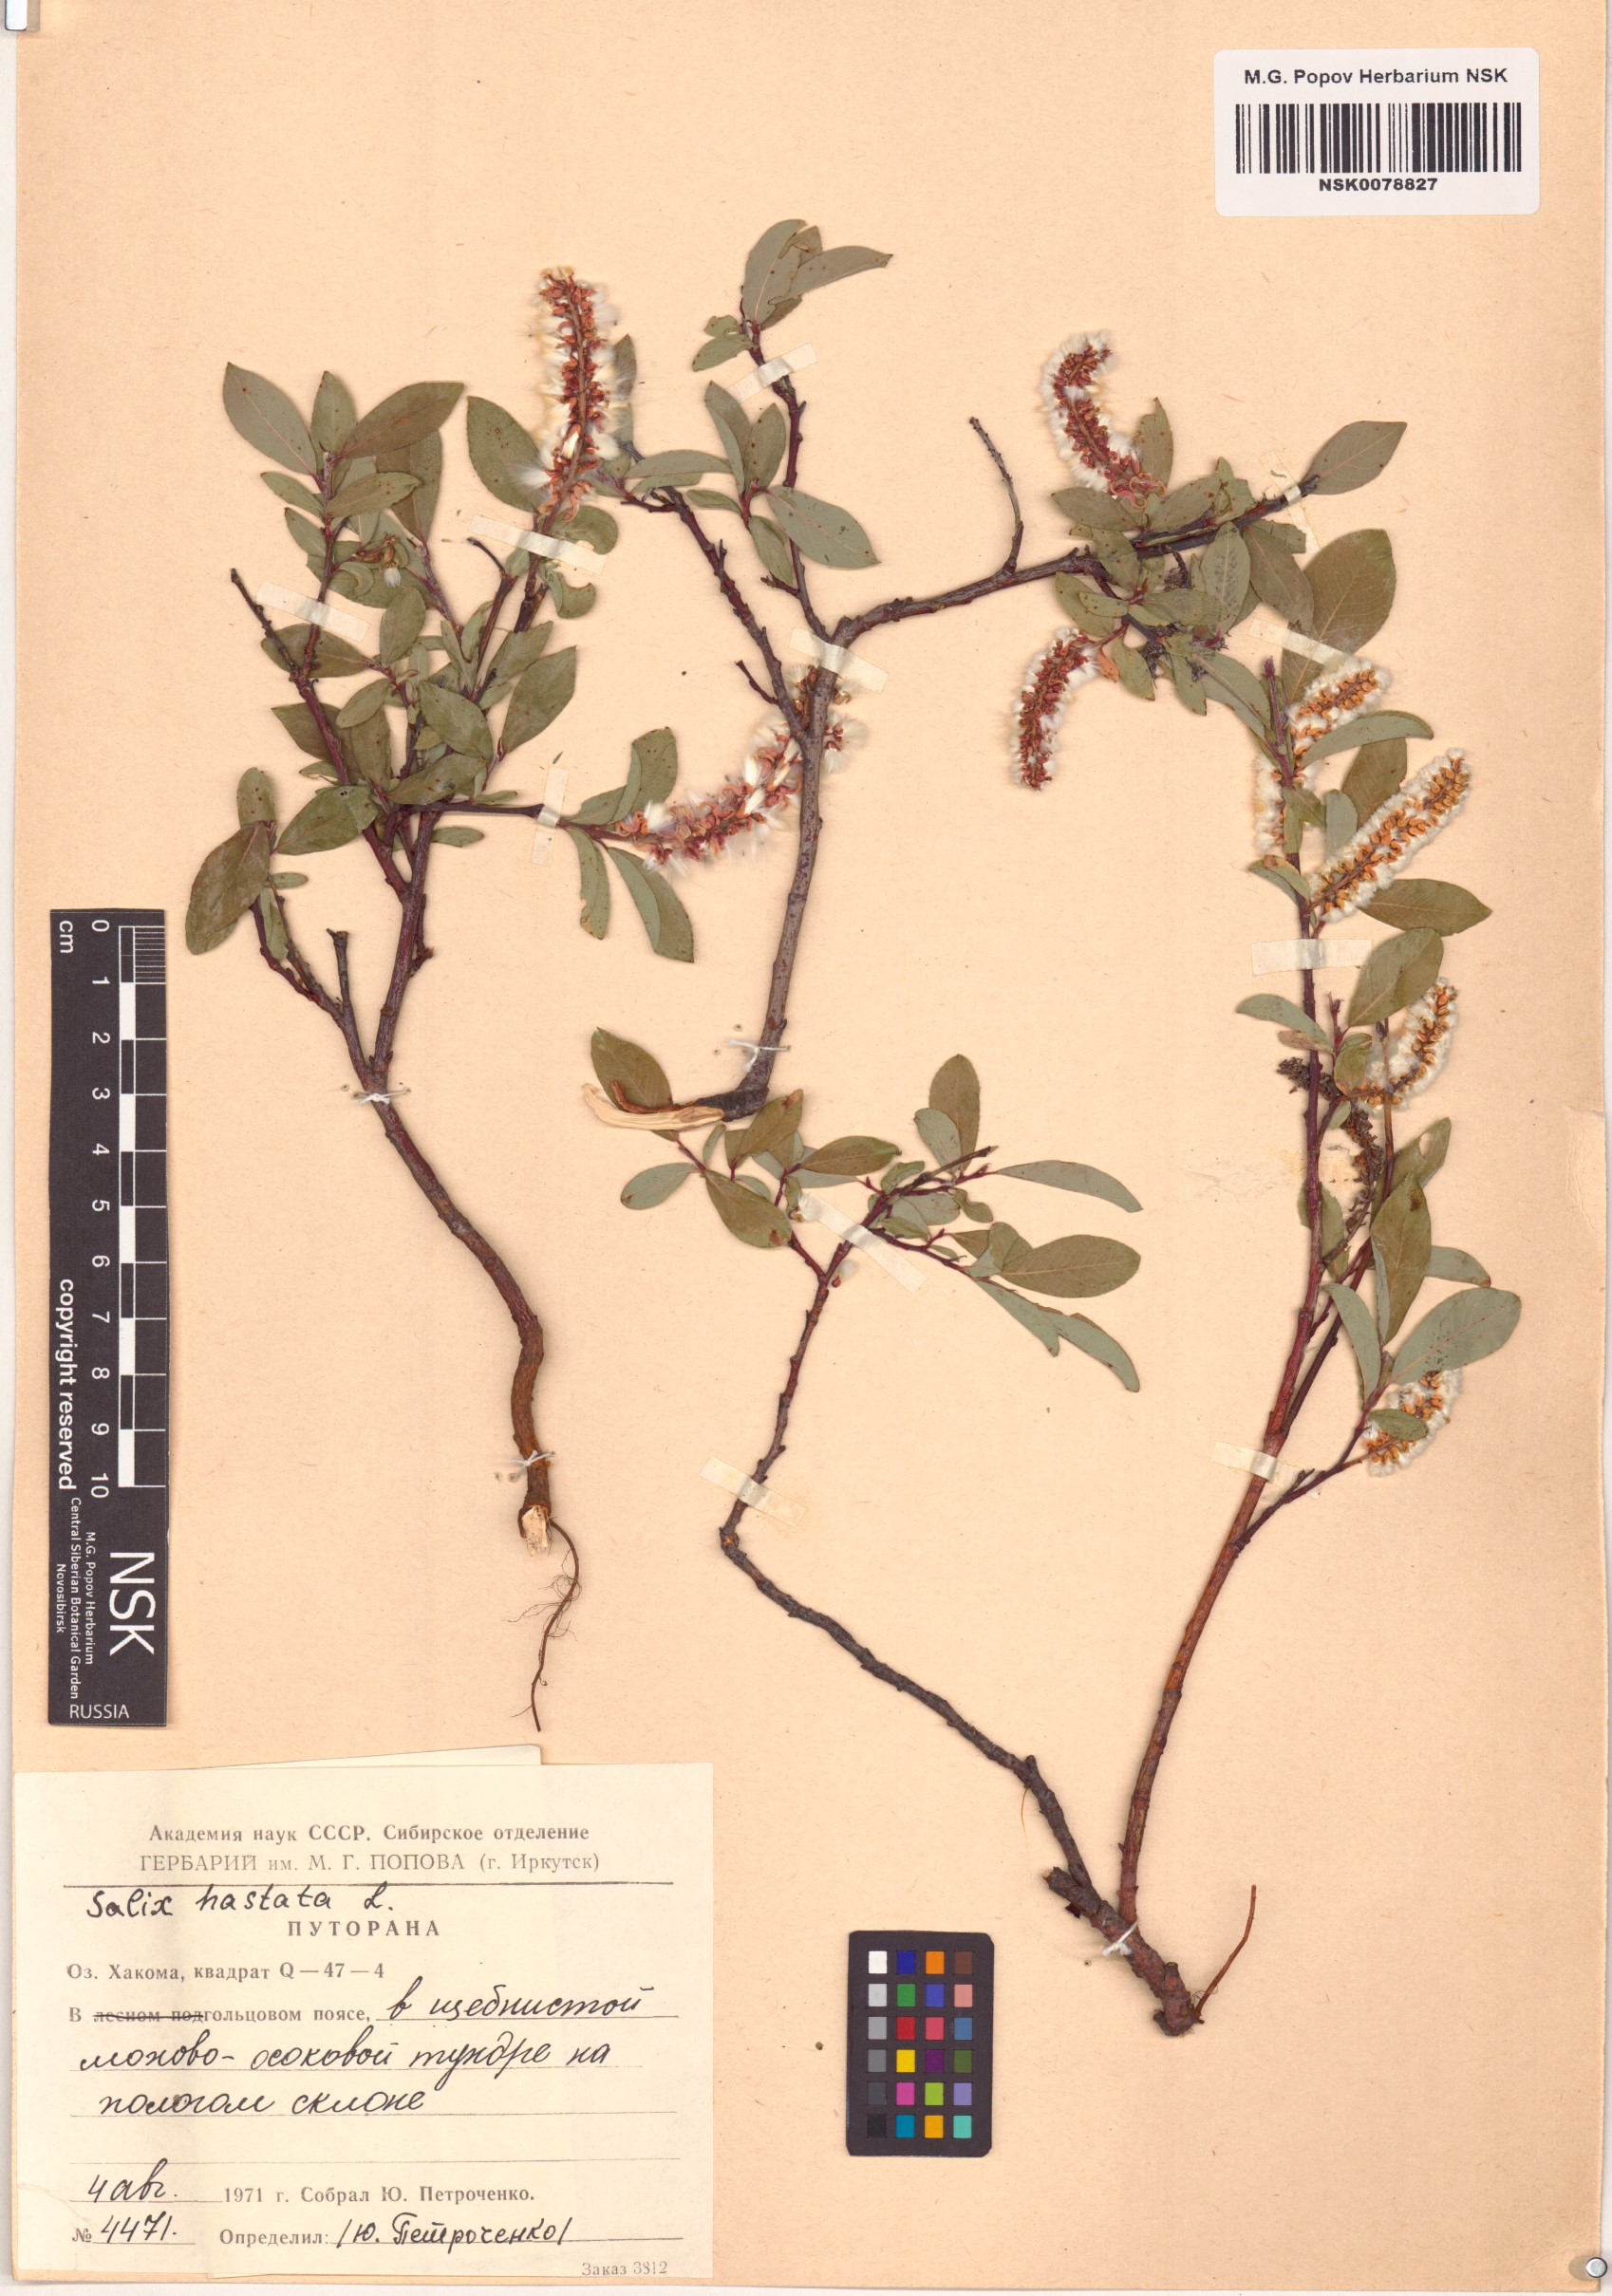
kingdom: Plantae
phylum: Tracheophyta
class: Magnoliopsida
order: Malpighiales
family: Salicaceae
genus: Salix
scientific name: Salix hastata
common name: Halberd willow
